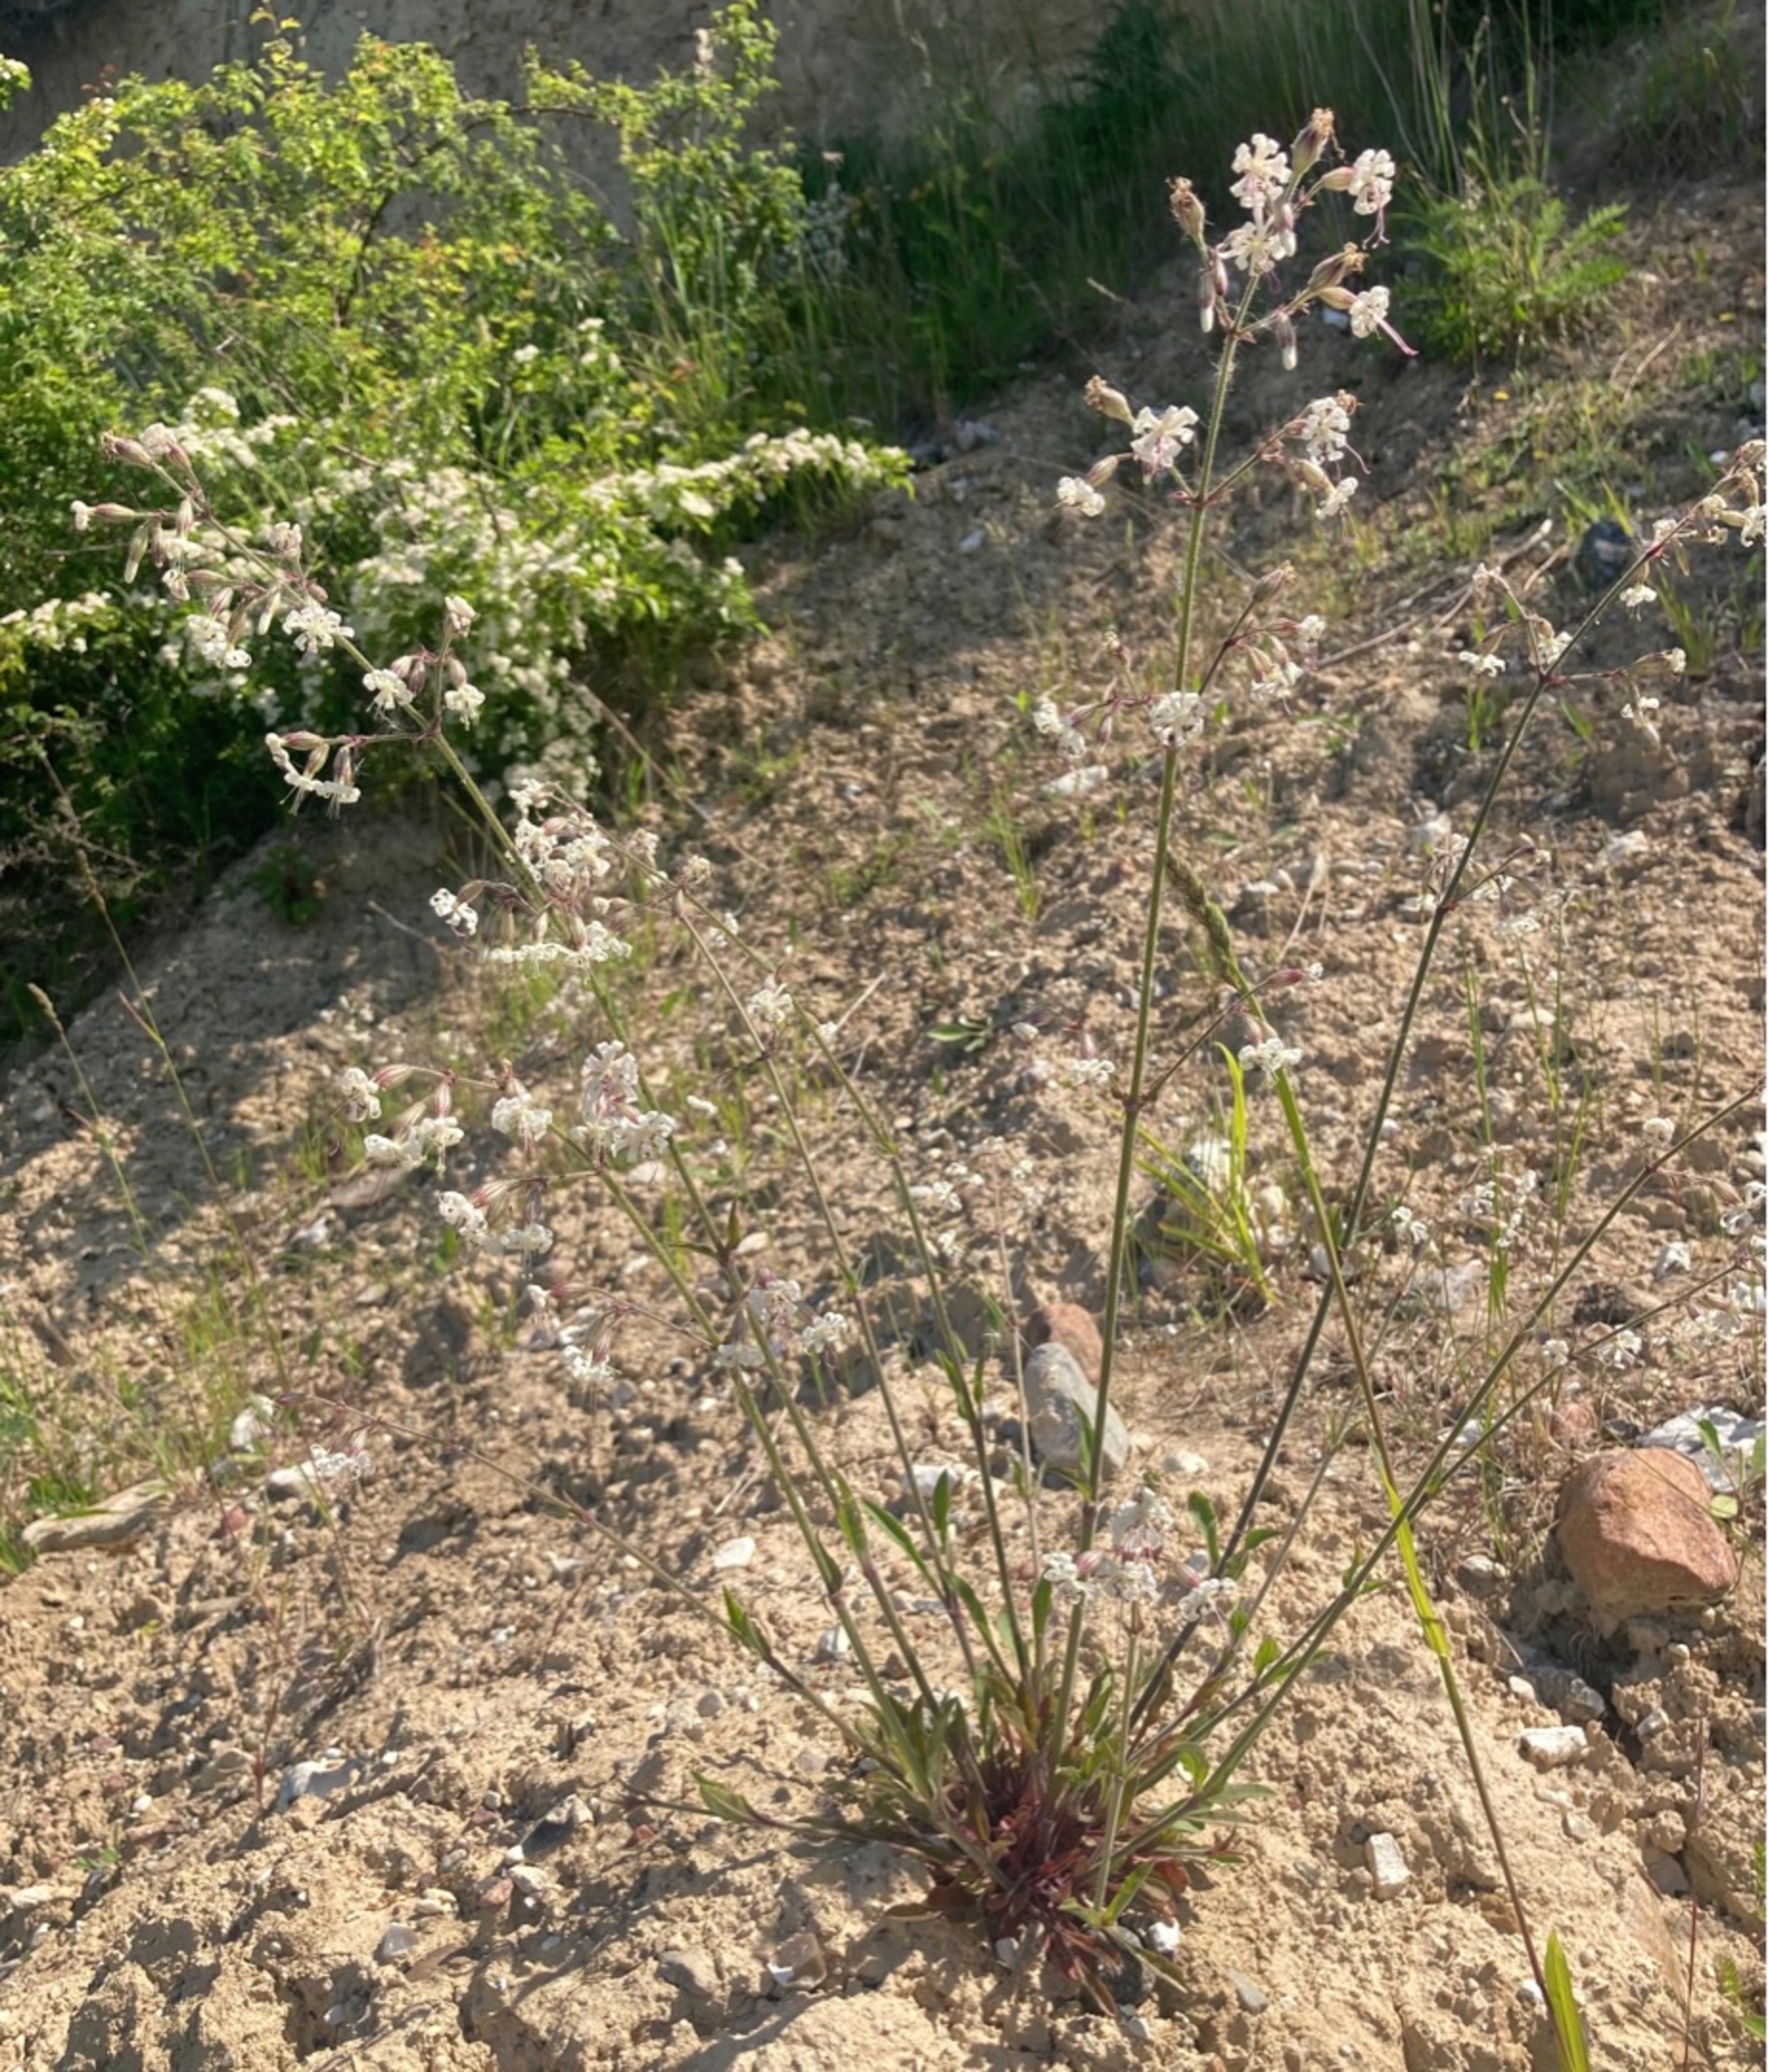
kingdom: Plantae
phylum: Tracheophyta
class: Magnoliopsida
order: Caryophyllales
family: Caryophyllaceae
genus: Silene
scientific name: Silene nutans
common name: Nikkende limurt
